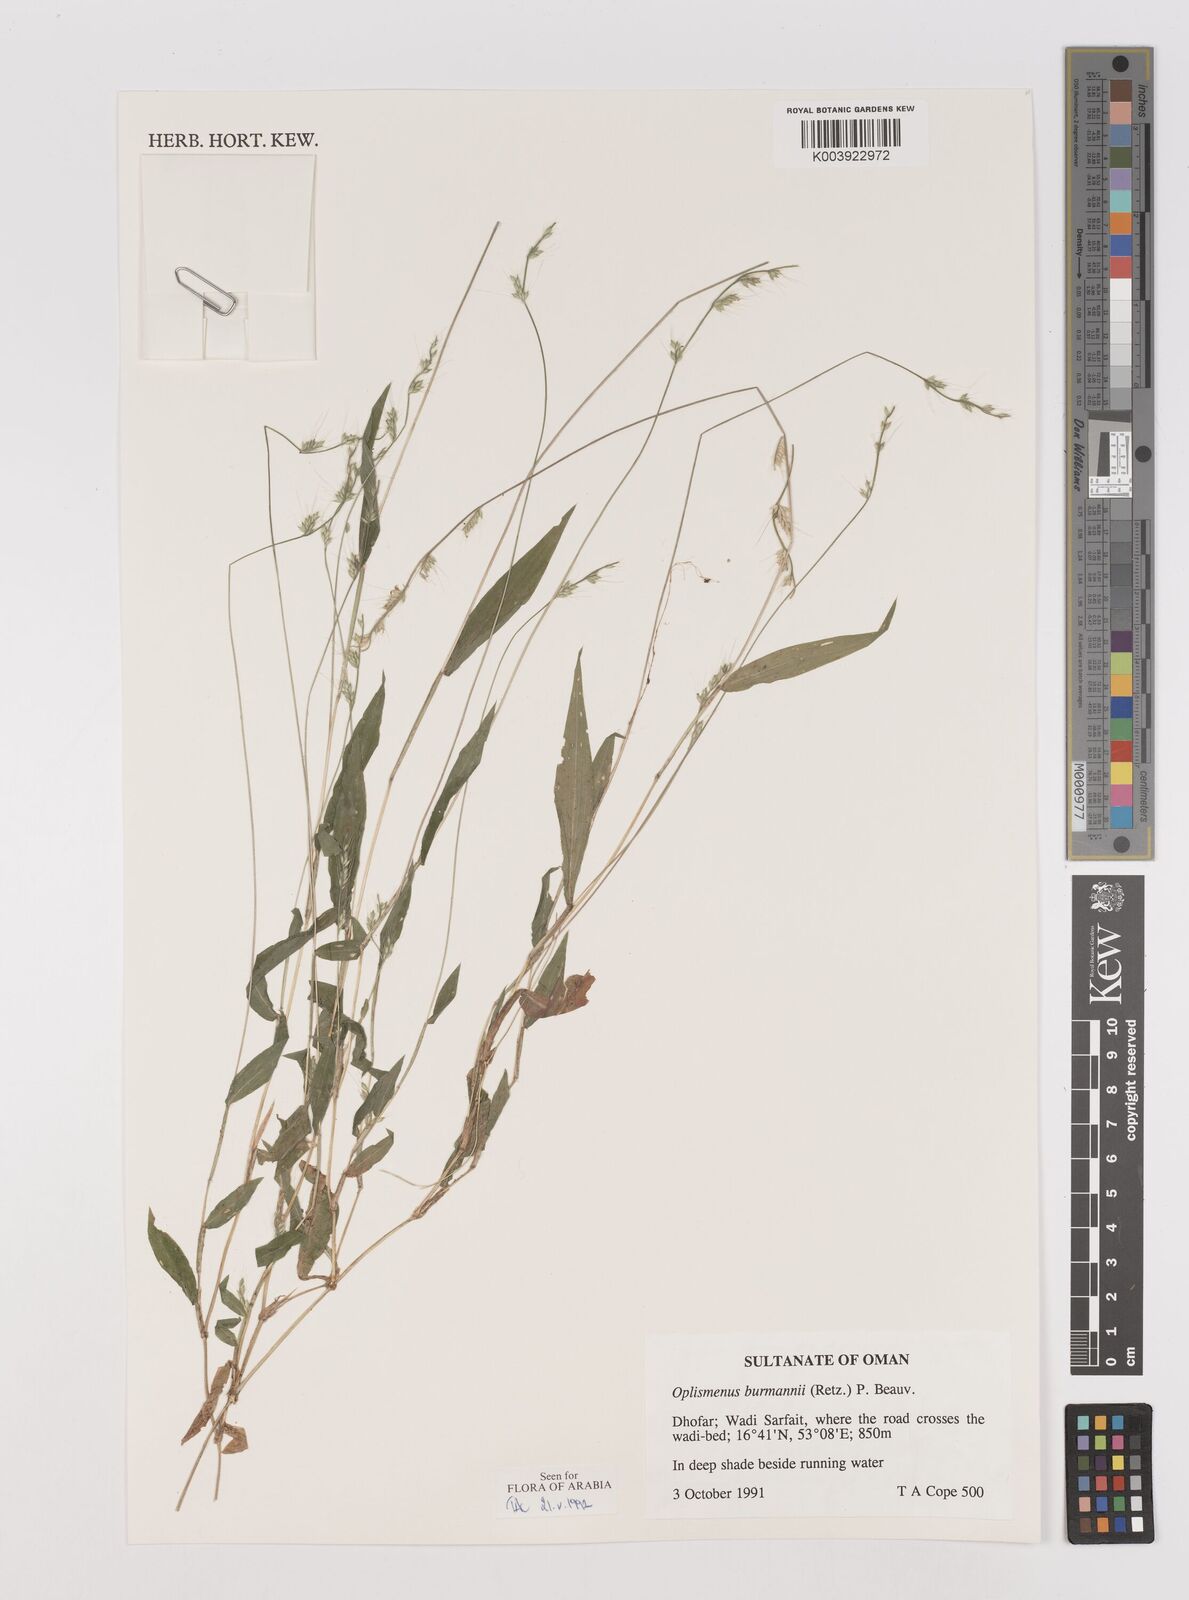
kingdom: Plantae
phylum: Tracheophyta
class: Liliopsida
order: Poales
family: Poaceae
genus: Oplismenus
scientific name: Oplismenus burmanni
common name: Burmann's basketgrass
